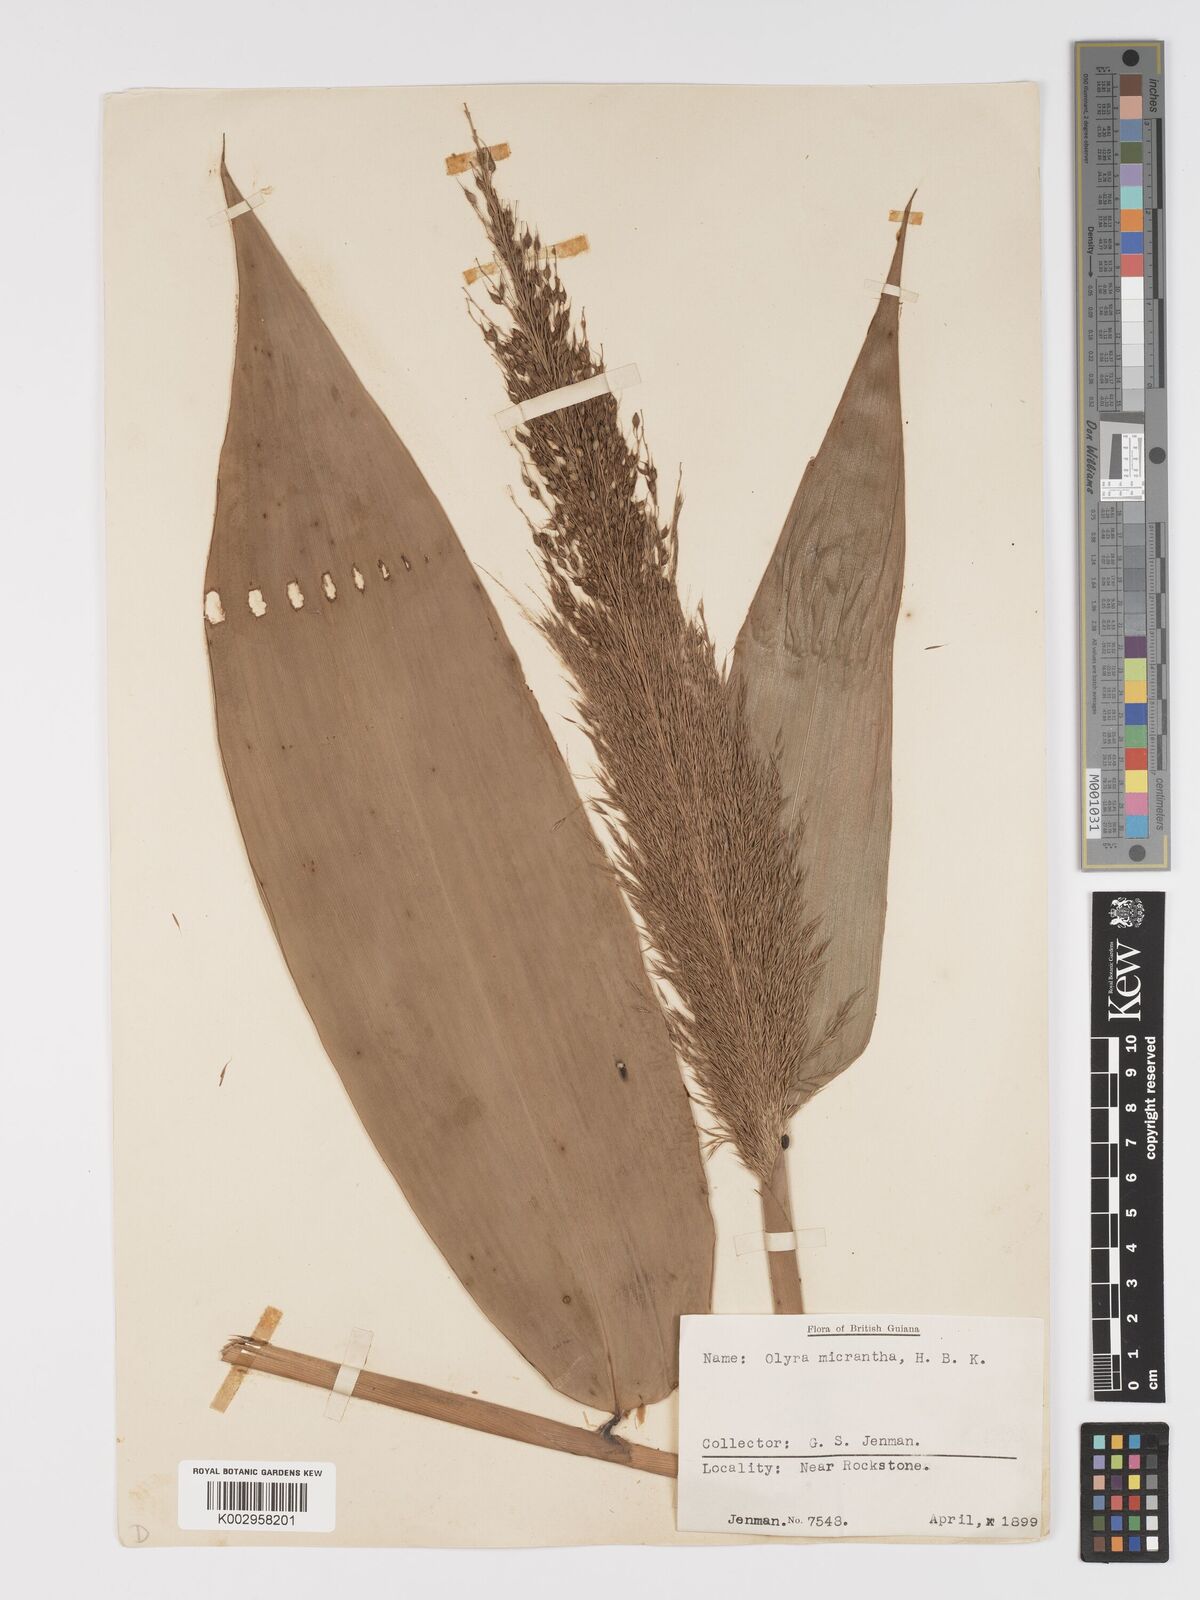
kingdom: Plantae
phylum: Tracheophyta
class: Liliopsida
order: Poales
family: Poaceae
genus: Taquara
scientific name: Taquara micrantha
